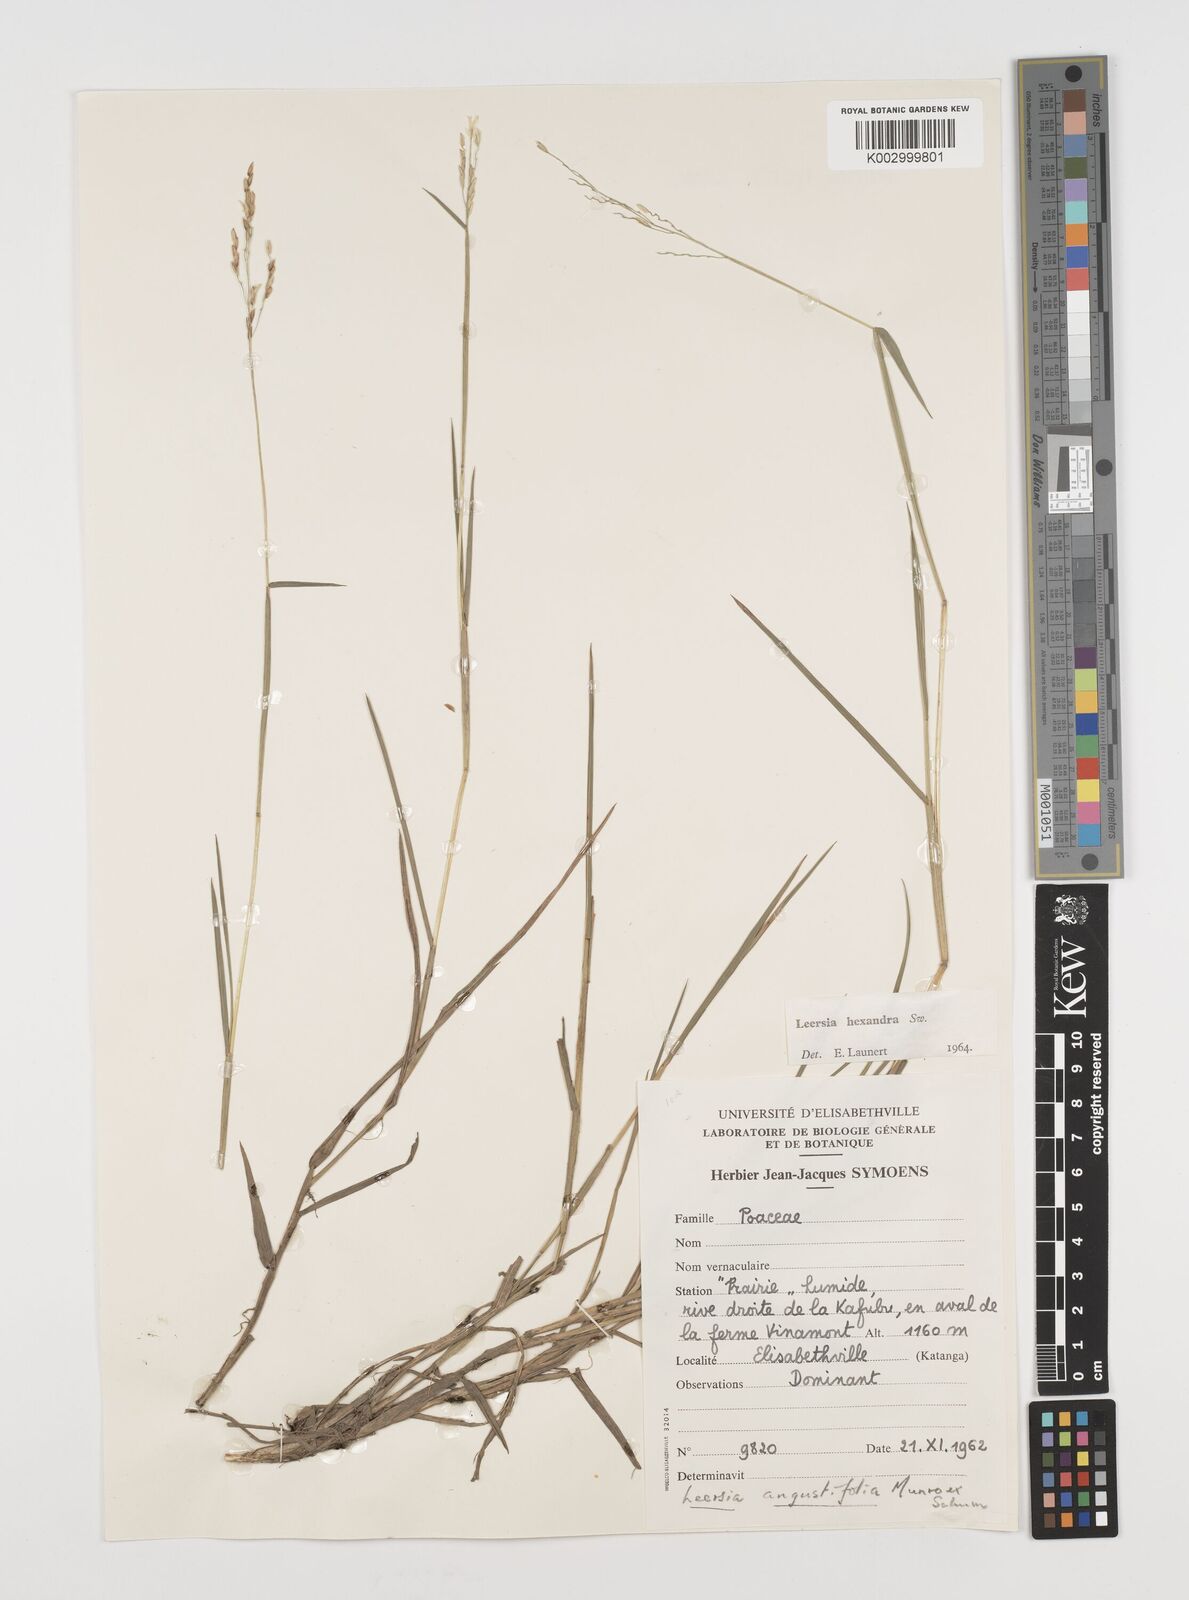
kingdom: Plantae
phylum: Tracheophyta
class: Liliopsida
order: Poales
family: Poaceae
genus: Leersia
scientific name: Leersia hexandra
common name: Southern cut grass
